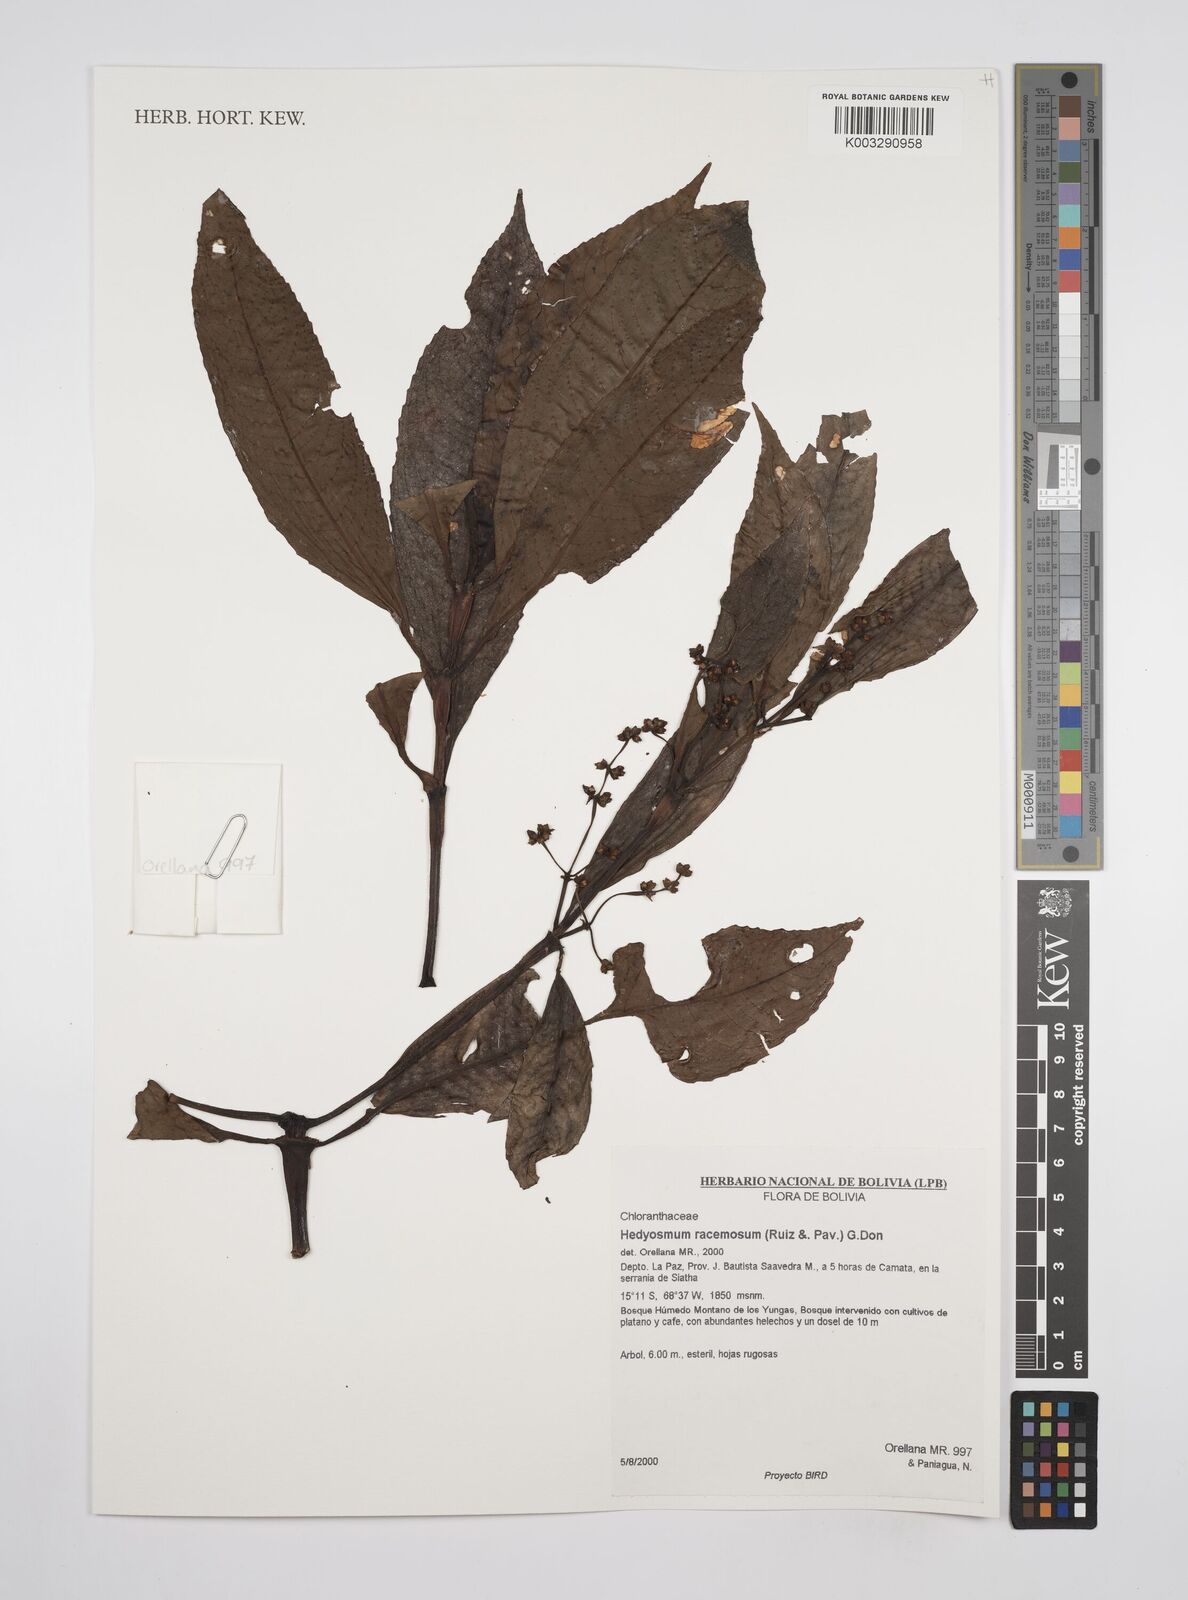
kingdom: Plantae
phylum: Tracheophyta
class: Magnoliopsida
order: Chloranthales
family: Chloranthaceae
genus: Hedyosmum
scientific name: Hedyosmum racemosum
